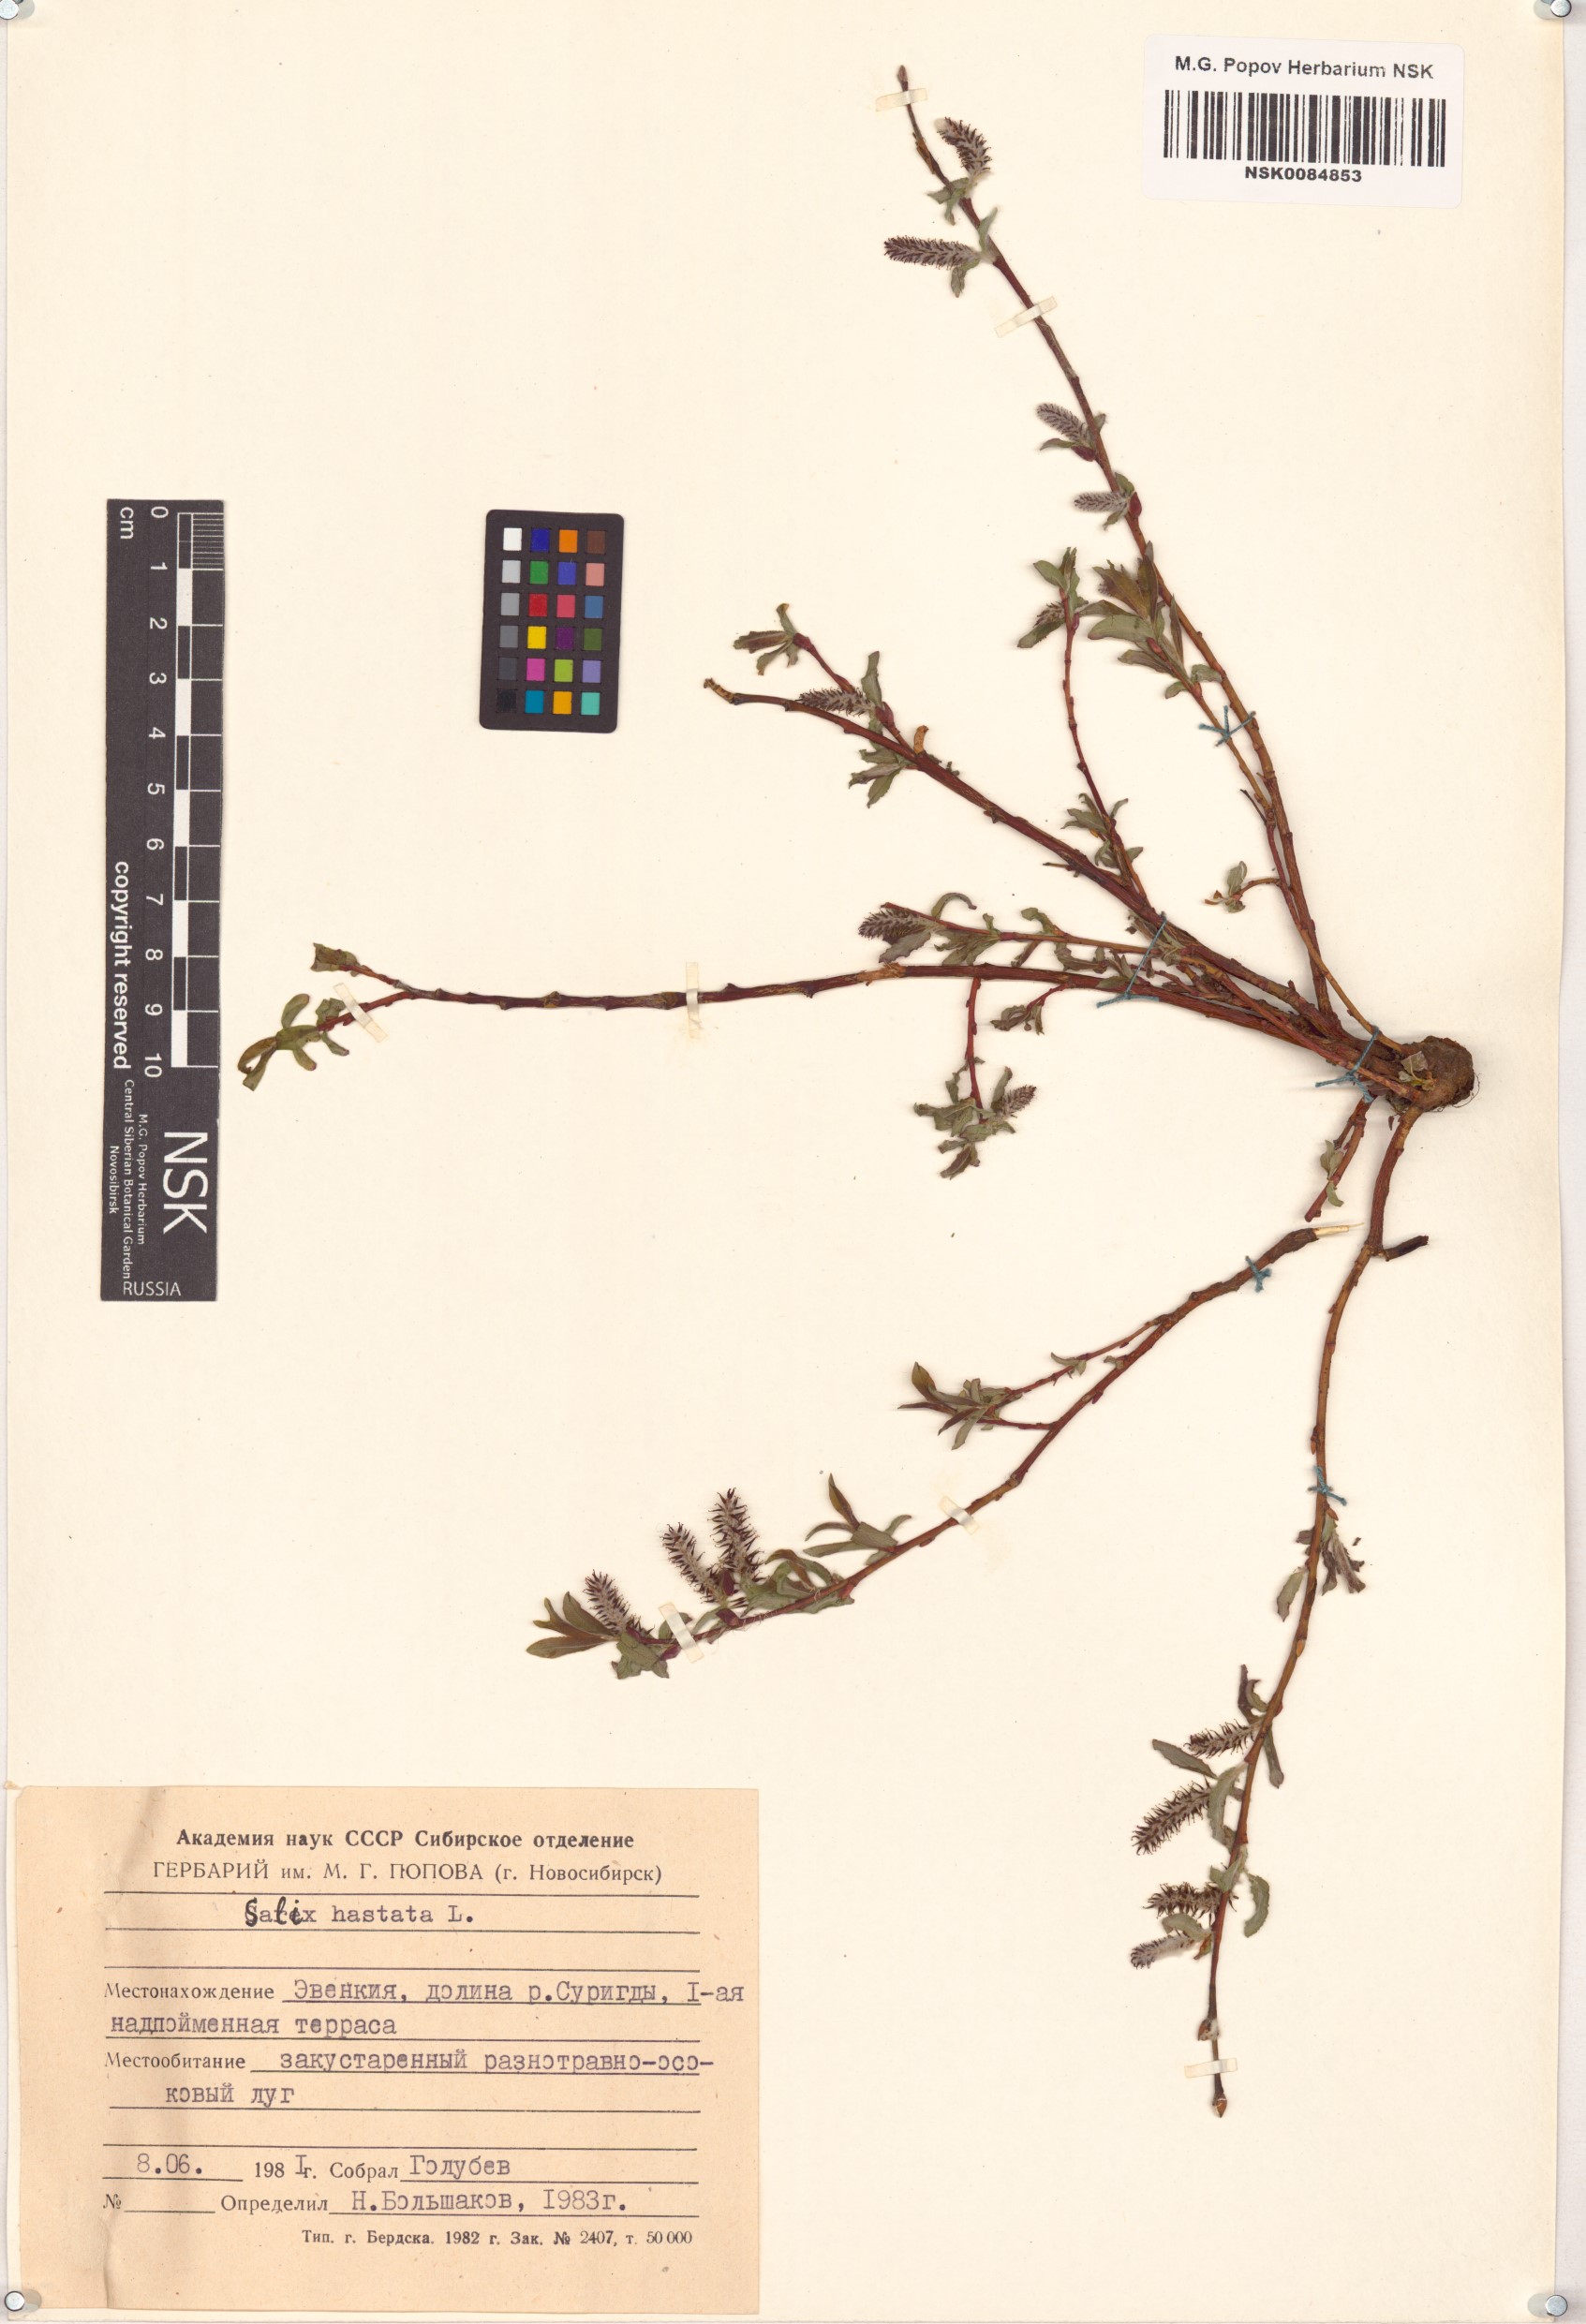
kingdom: Plantae
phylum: Tracheophyta
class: Magnoliopsida
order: Malpighiales
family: Salicaceae
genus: Salix
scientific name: Salix hastata
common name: Halberd willow
